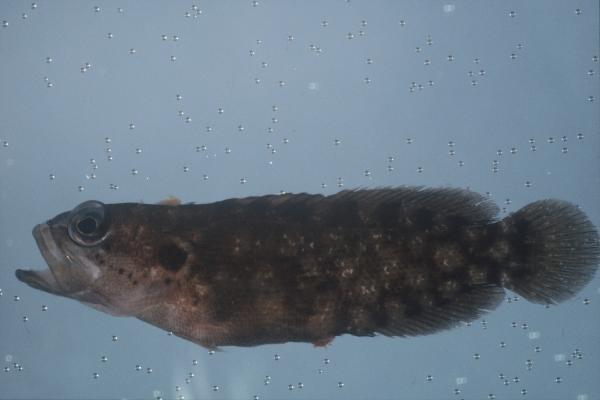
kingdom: Animalia
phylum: Chordata
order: Perciformes
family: Serranidae
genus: Pseudogramma
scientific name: Pseudogramma polyacantha
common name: Bold-spot soapfish
